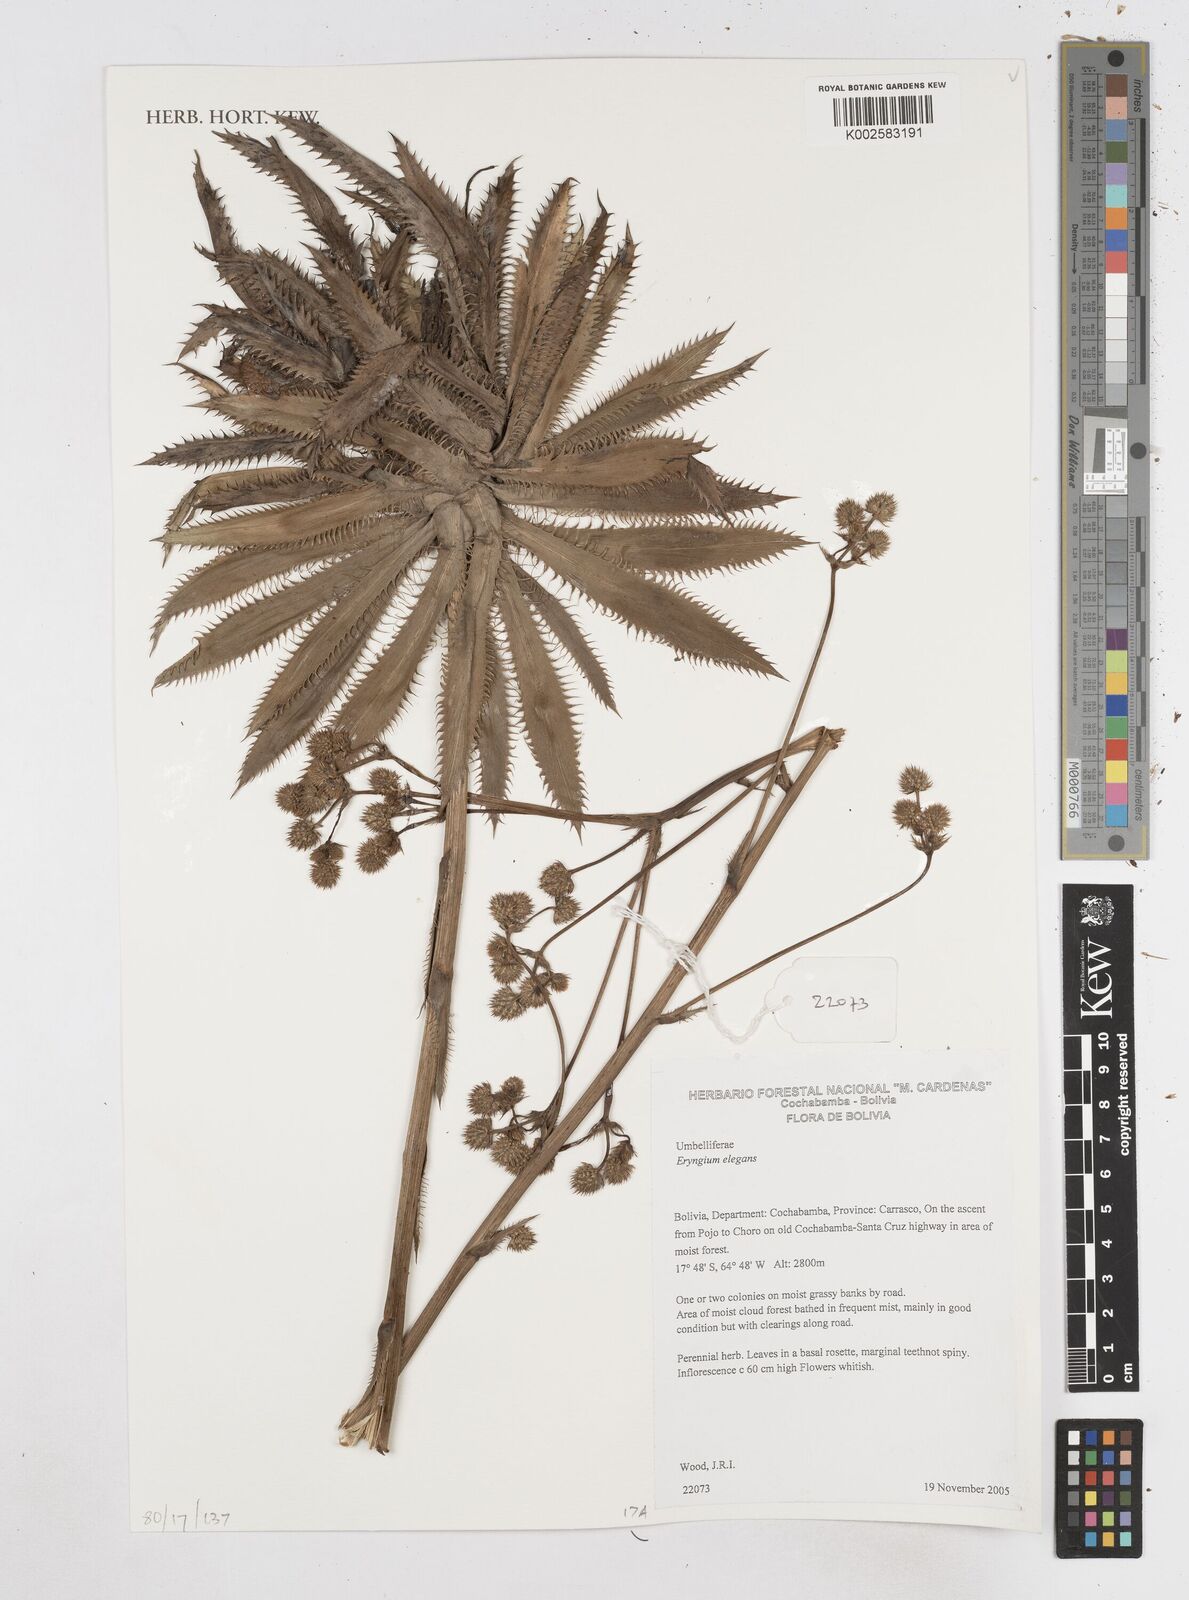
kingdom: Plantae
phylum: Tracheophyta
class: Magnoliopsida
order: Apiales
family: Apiaceae
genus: Eryngium
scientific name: Eryngium elegans
